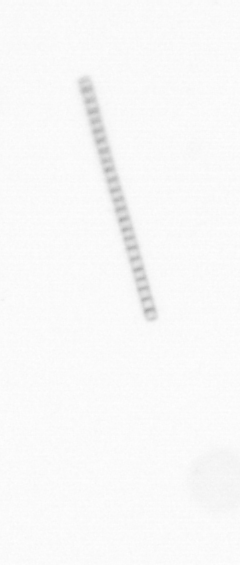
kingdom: Chromista
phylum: Ochrophyta
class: Bacillariophyceae
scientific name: Bacillariophyceae
